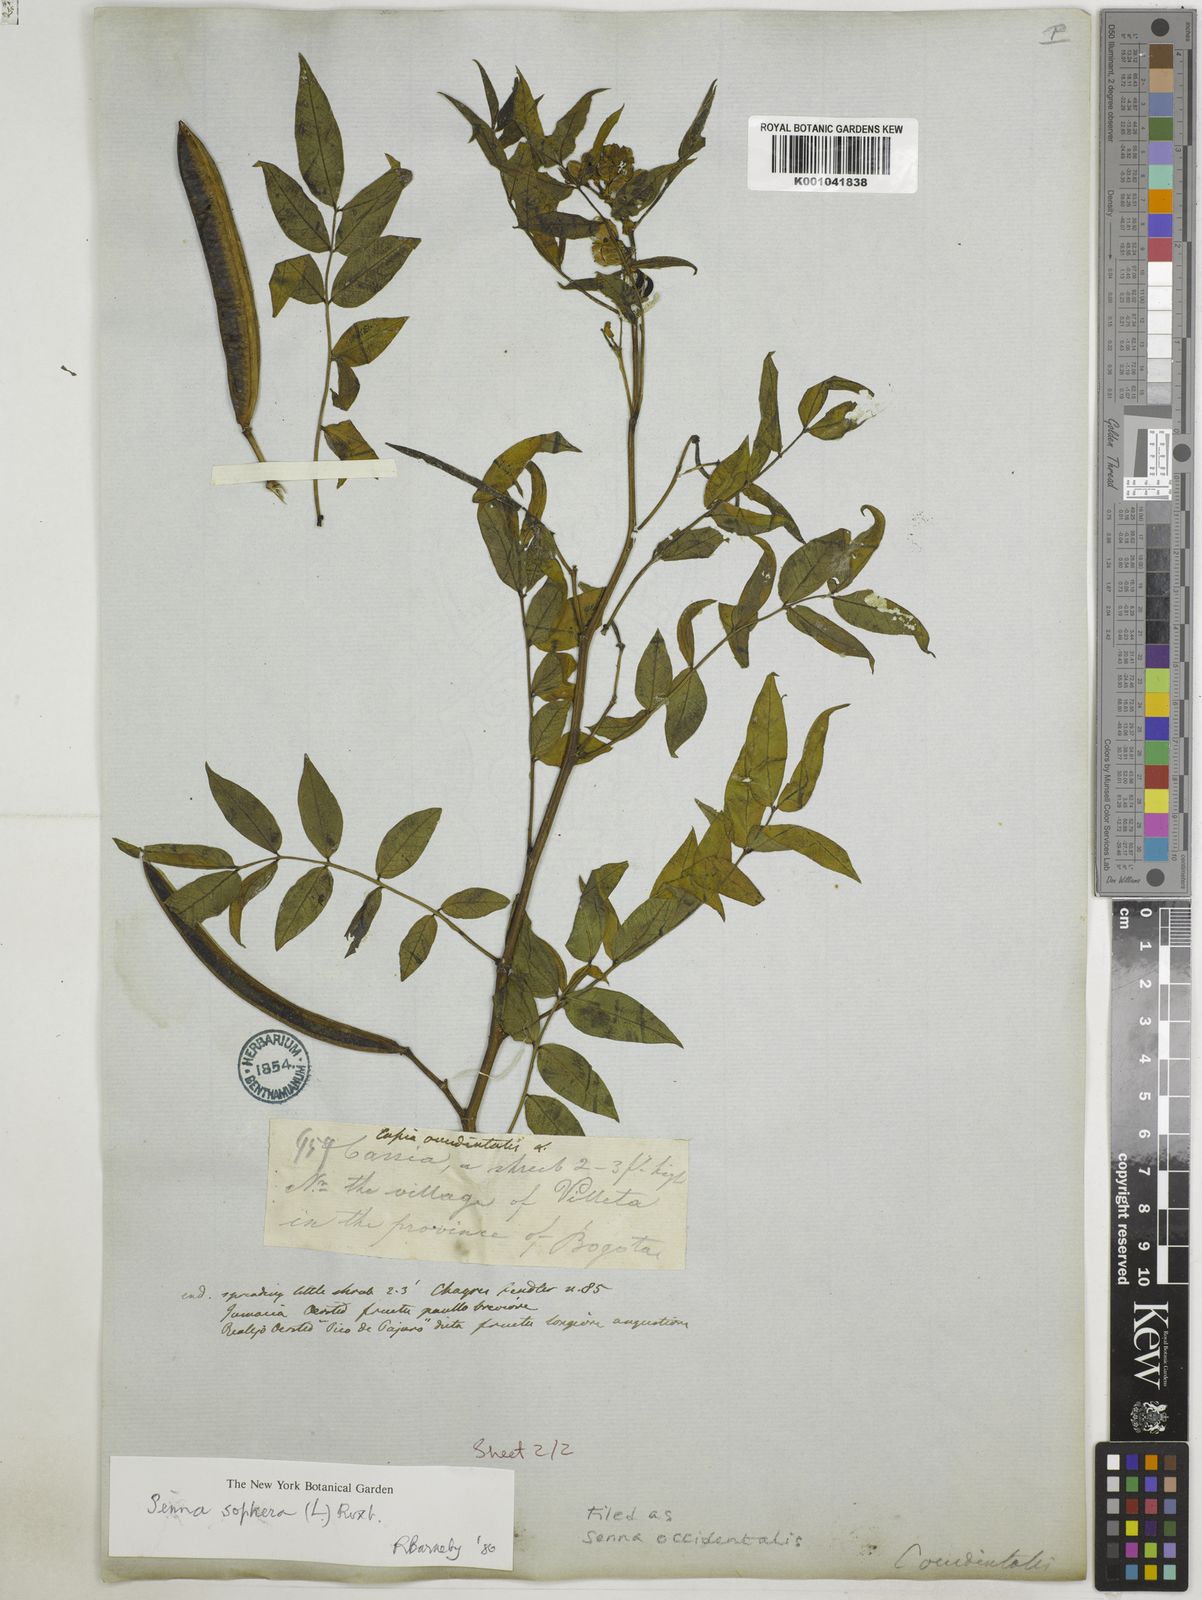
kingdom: Plantae
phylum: Tracheophyta
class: Magnoliopsida
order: Fabales
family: Fabaceae
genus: Senna
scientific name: Senna occidentalis
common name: Septicweed
